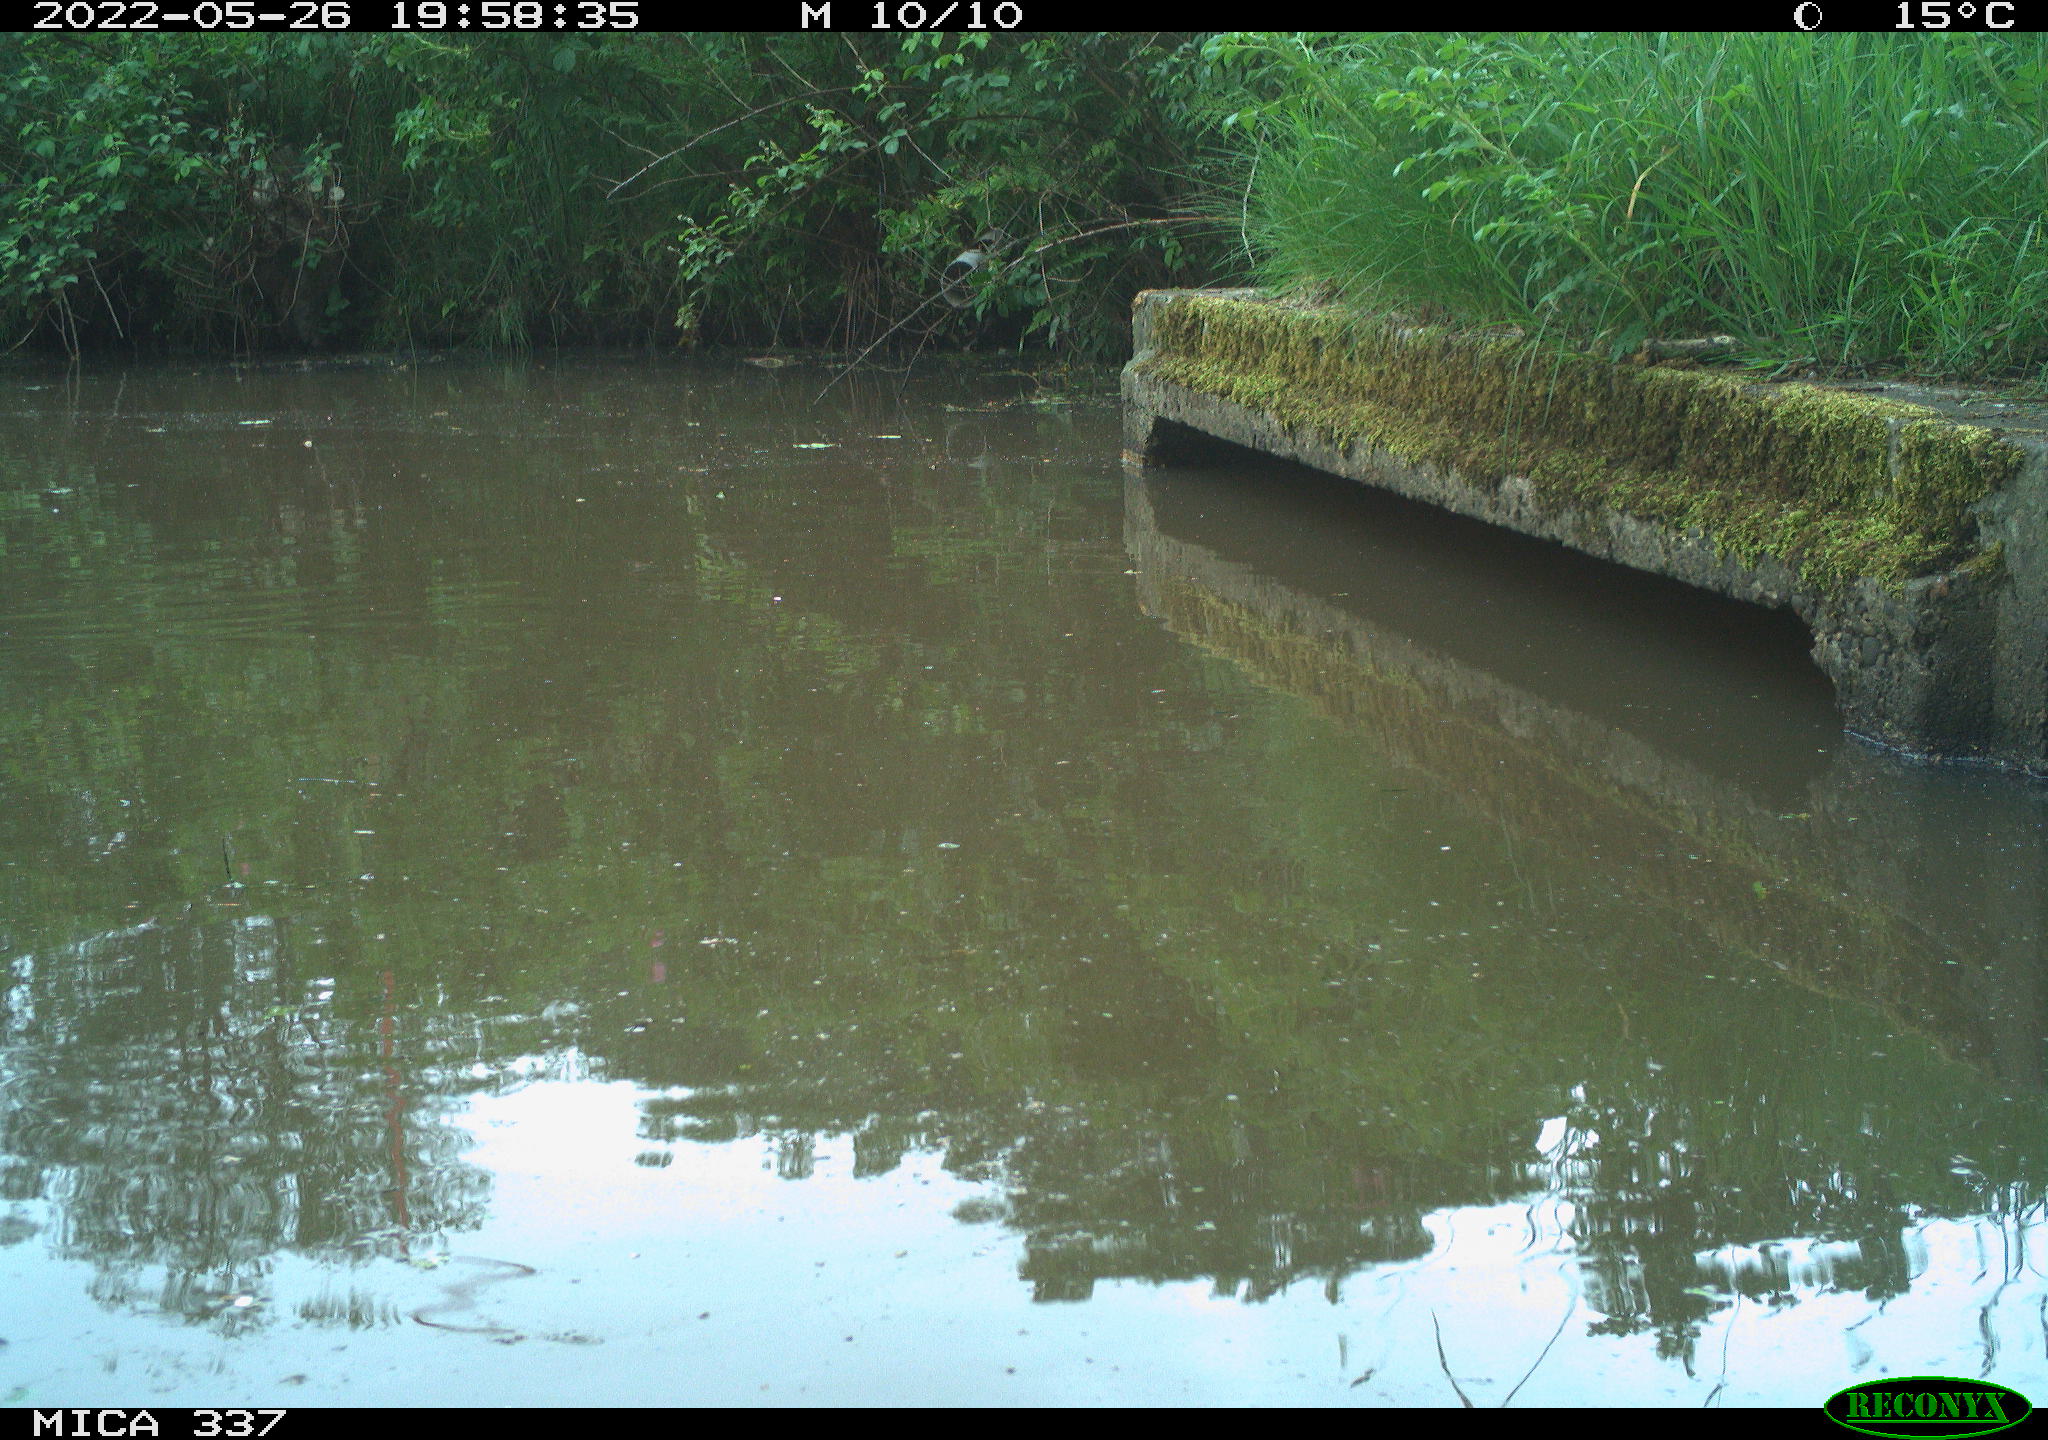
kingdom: Animalia
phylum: Chordata
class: Aves
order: Anseriformes
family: Anatidae
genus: Anas
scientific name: Anas platyrhynchos
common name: Mallard
